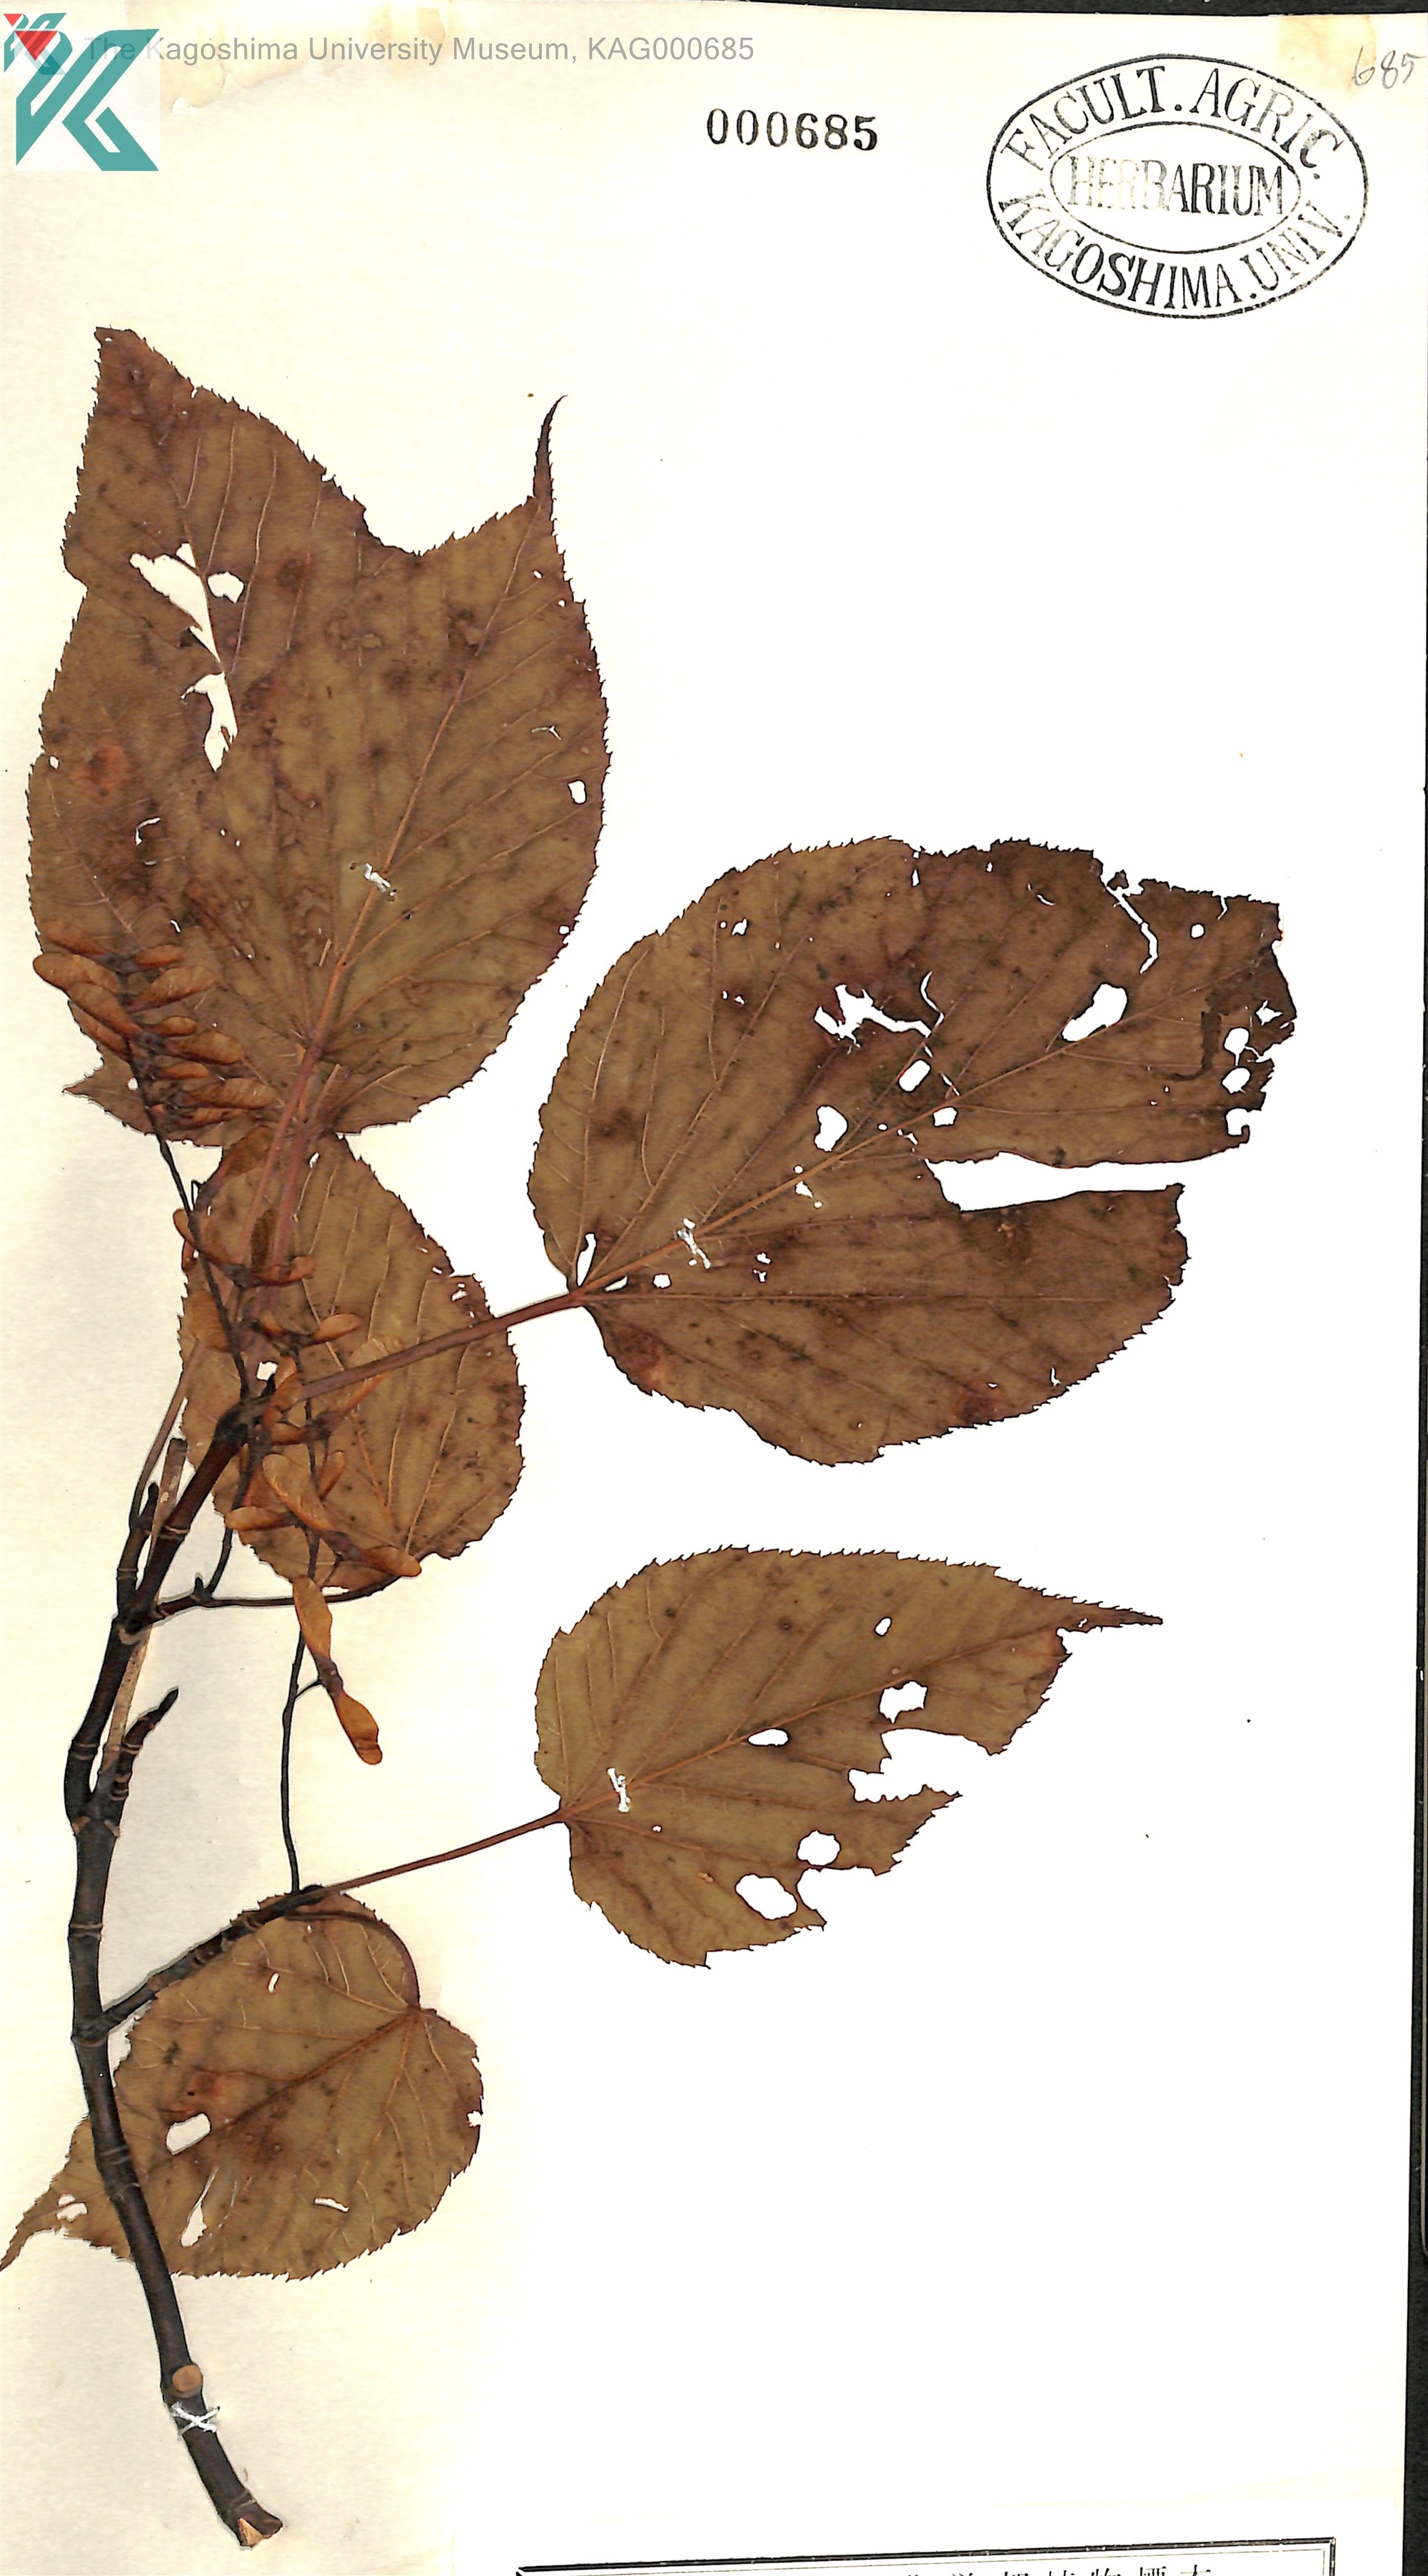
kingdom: Plantae
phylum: Tracheophyta
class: Magnoliopsida
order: Sapindales
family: Sapindaceae
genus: Acer
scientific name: Acer morifolium
